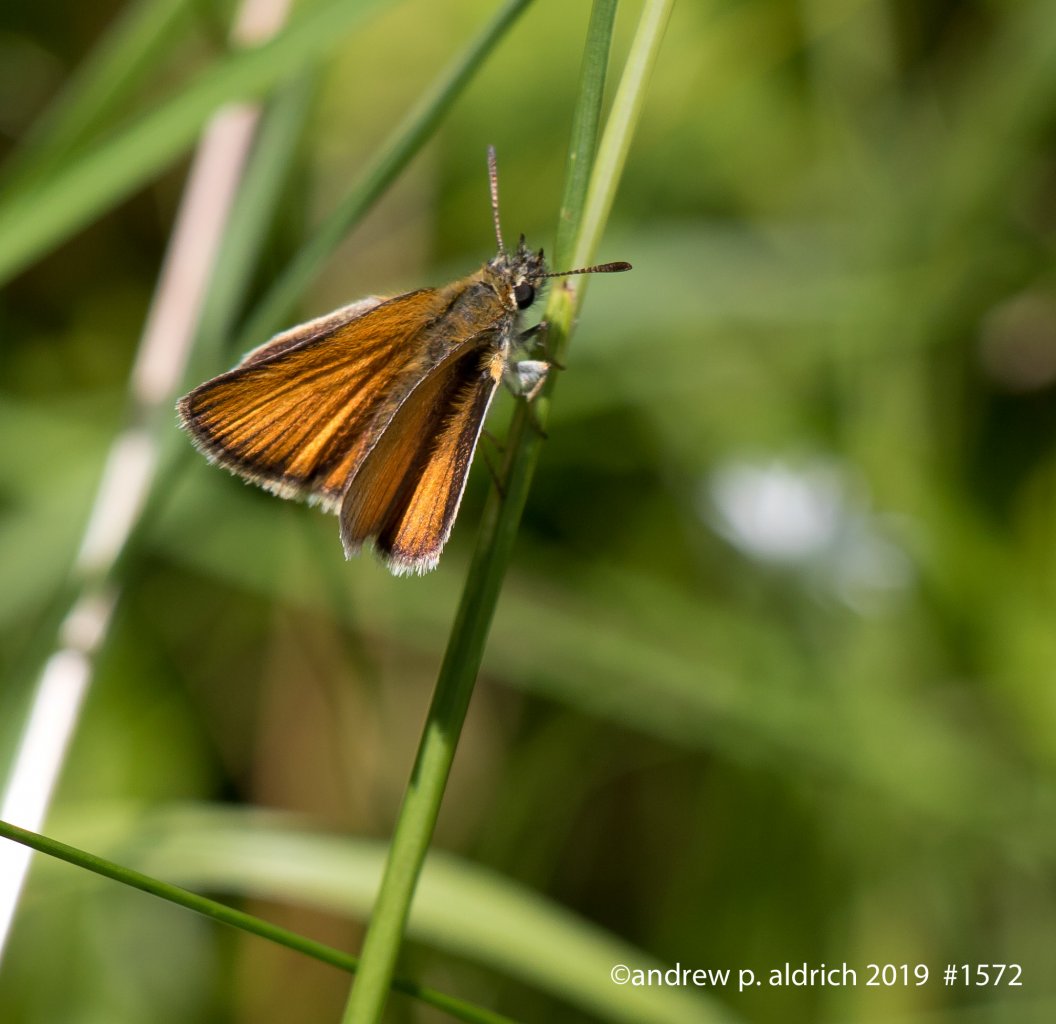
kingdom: Animalia
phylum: Arthropoda
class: Insecta
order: Lepidoptera
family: Hesperiidae
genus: Ancyloxypha
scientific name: Ancyloxypha numitor
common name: Least Skipper
